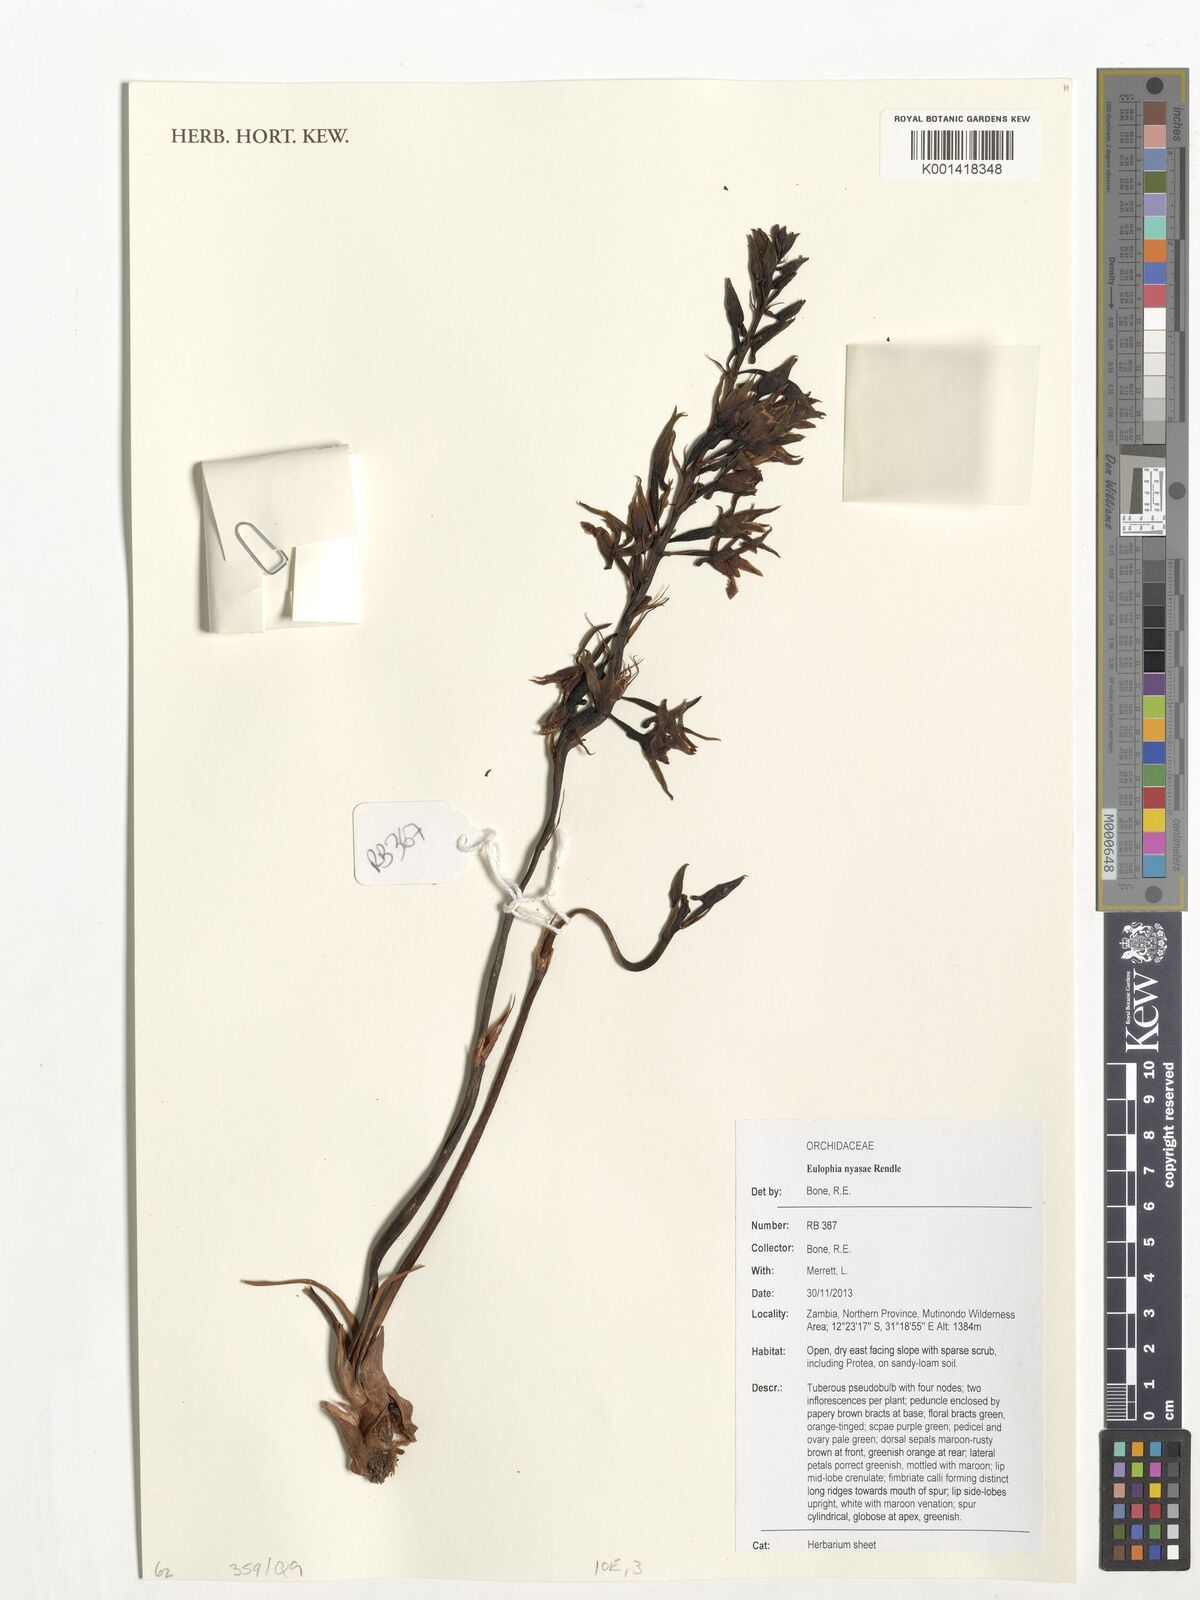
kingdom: Plantae
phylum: Tracheophyta
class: Liliopsida
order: Asparagales
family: Orchidaceae
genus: Eulophia
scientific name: Eulophia nyasae
